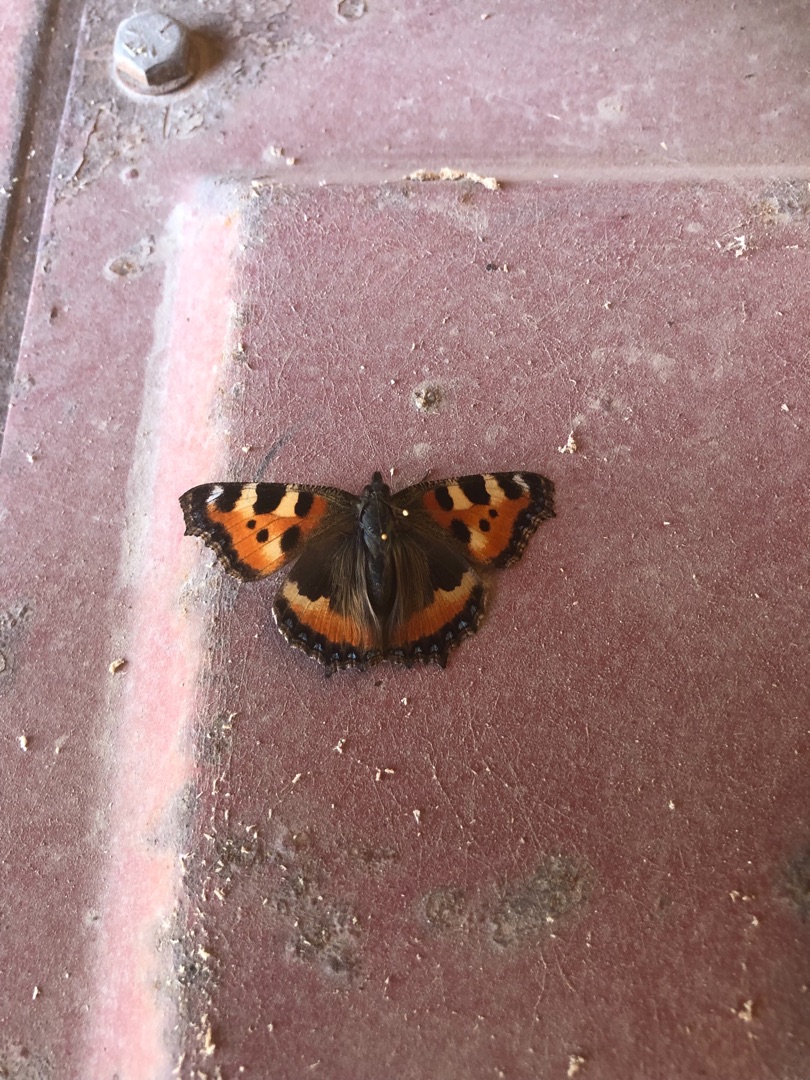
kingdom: Animalia
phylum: Arthropoda
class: Insecta
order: Lepidoptera
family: Nymphalidae
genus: Aglais
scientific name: Aglais urticae
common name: Nældens takvinge
